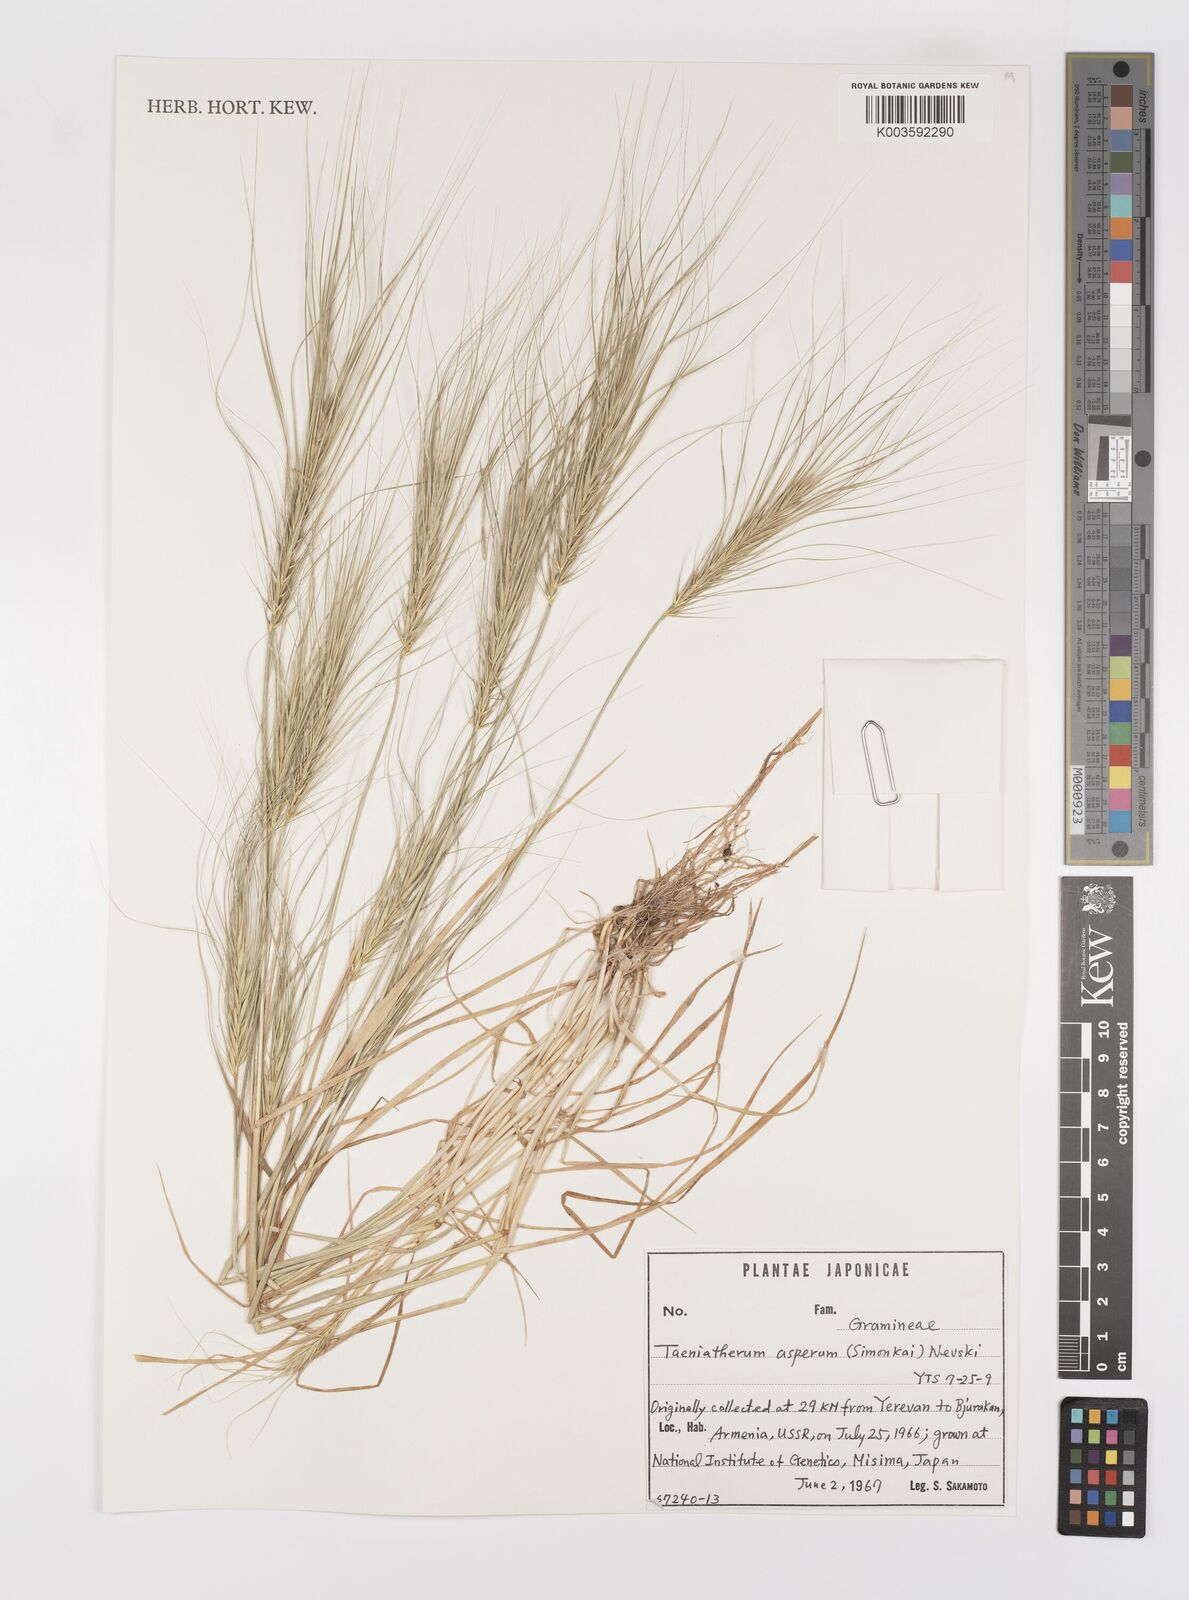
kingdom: Plantae
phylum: Tracheophyta
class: Liliopsida
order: Poales
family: Poaceae
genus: Taeniatherum
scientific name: Taeniatherum caput-medusae
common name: Medusahead
